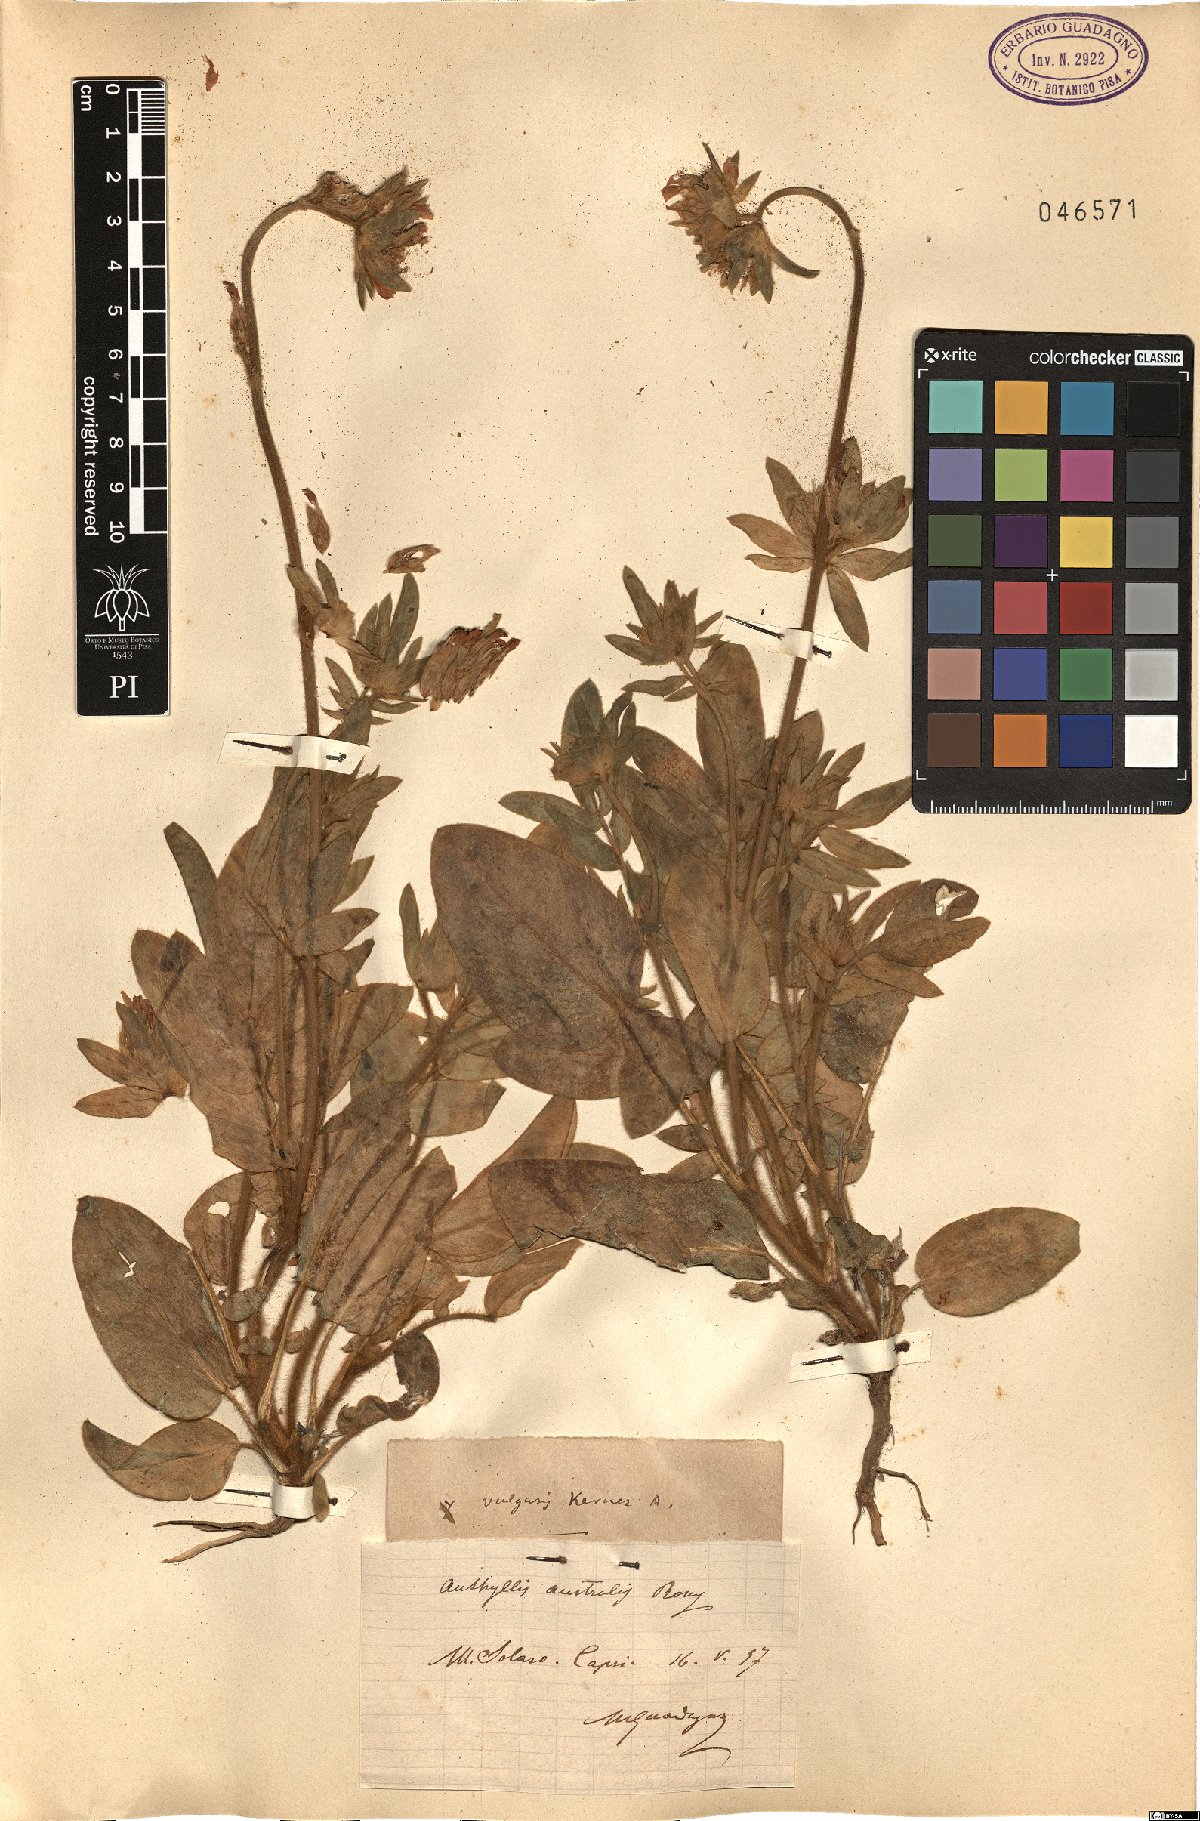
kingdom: Plantae
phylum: Tracheophyta
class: Magnoliopsida
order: Fabales
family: Fabaceae
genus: Anthyllis
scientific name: Anthyllis
